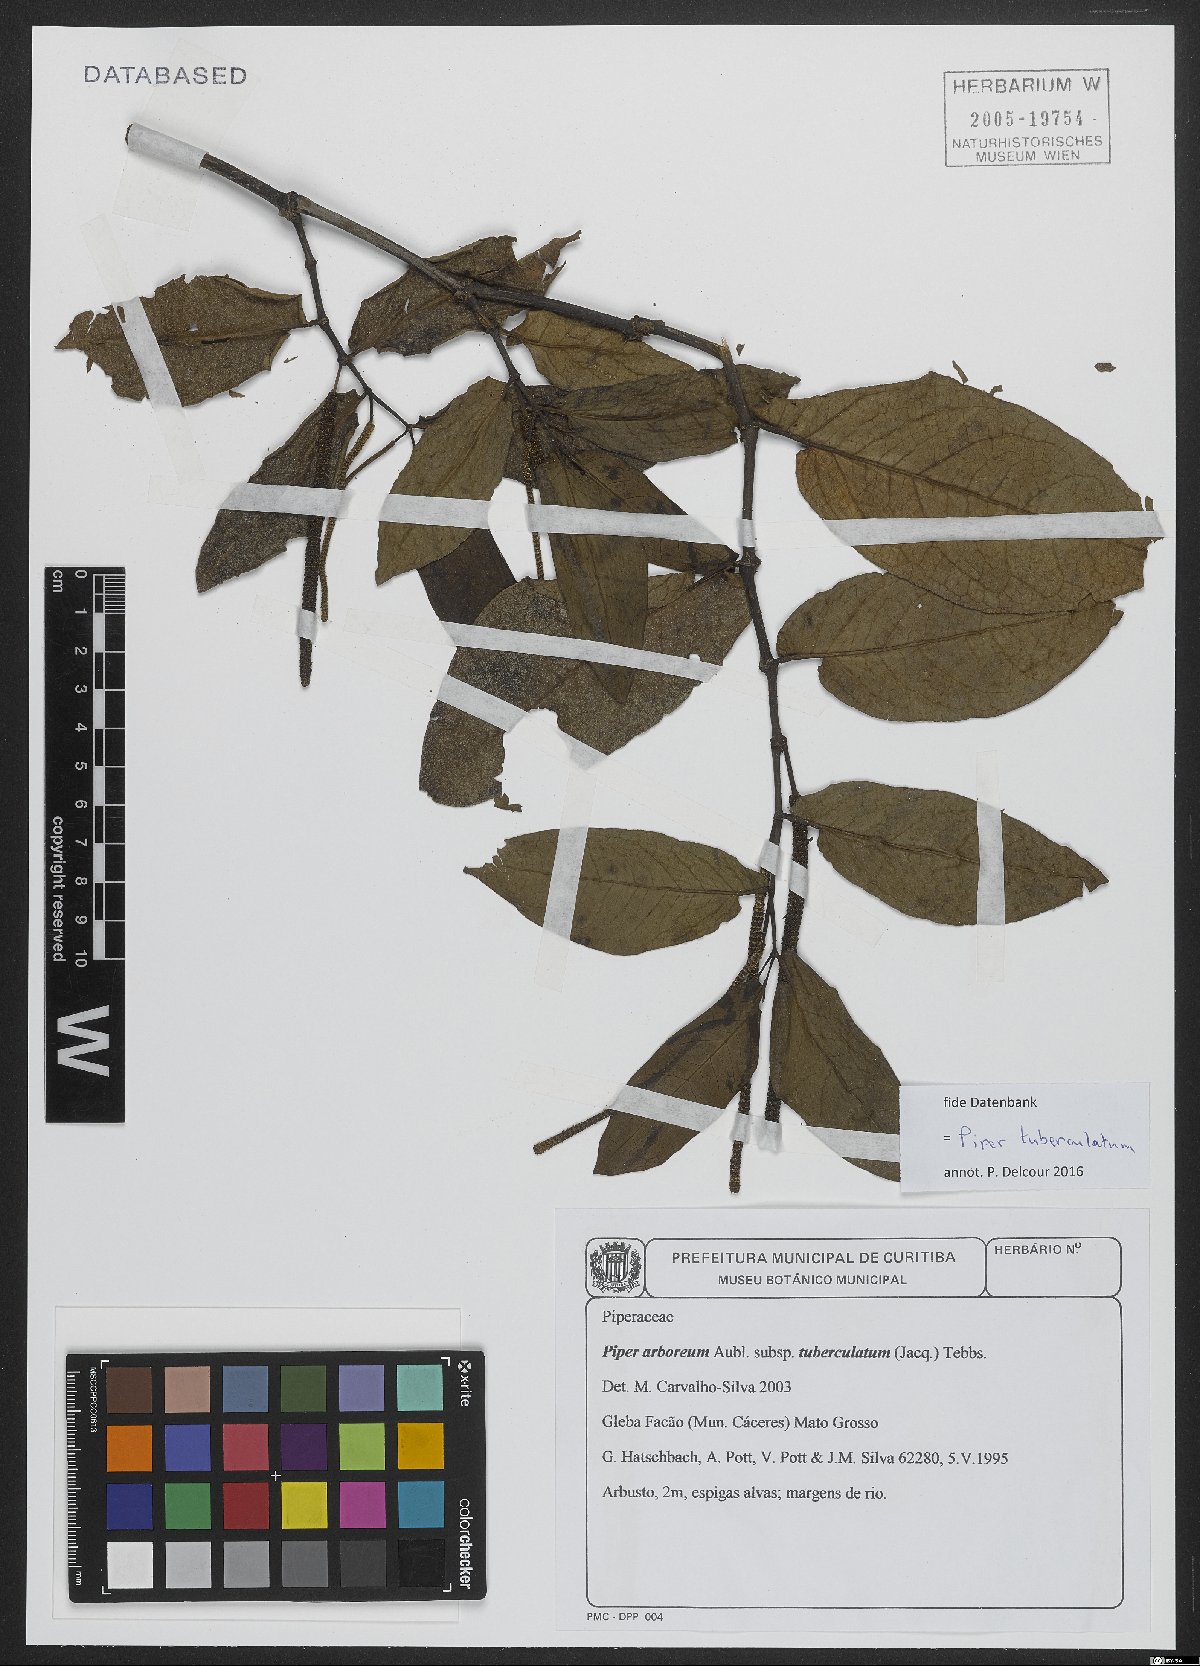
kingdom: Plantae
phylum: Tracheophyta
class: Magnoliopsida
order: Piperales
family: Piperaceae
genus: Piper
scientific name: Piper tuberculatum
